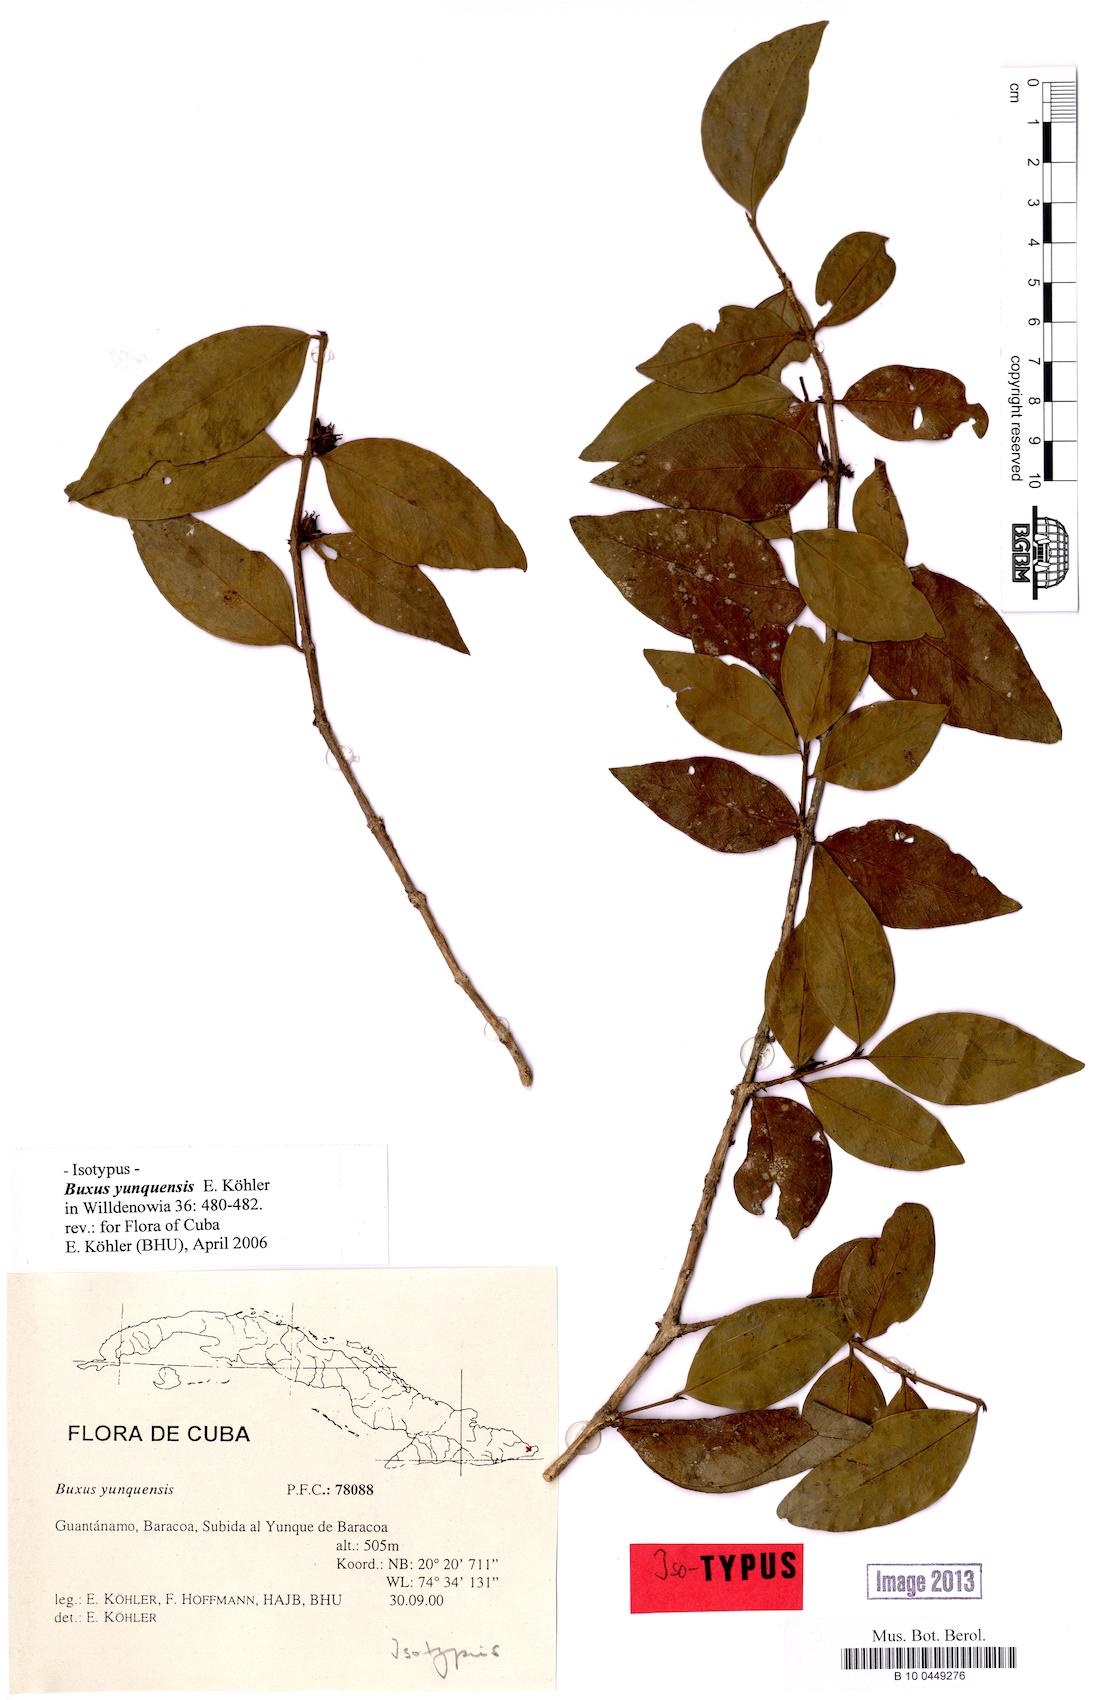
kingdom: Plantae
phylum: Tracheophyta
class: Magnoliopsida
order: Buxales
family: Buxaceae
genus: Buxus
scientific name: Buxus yunquensis
